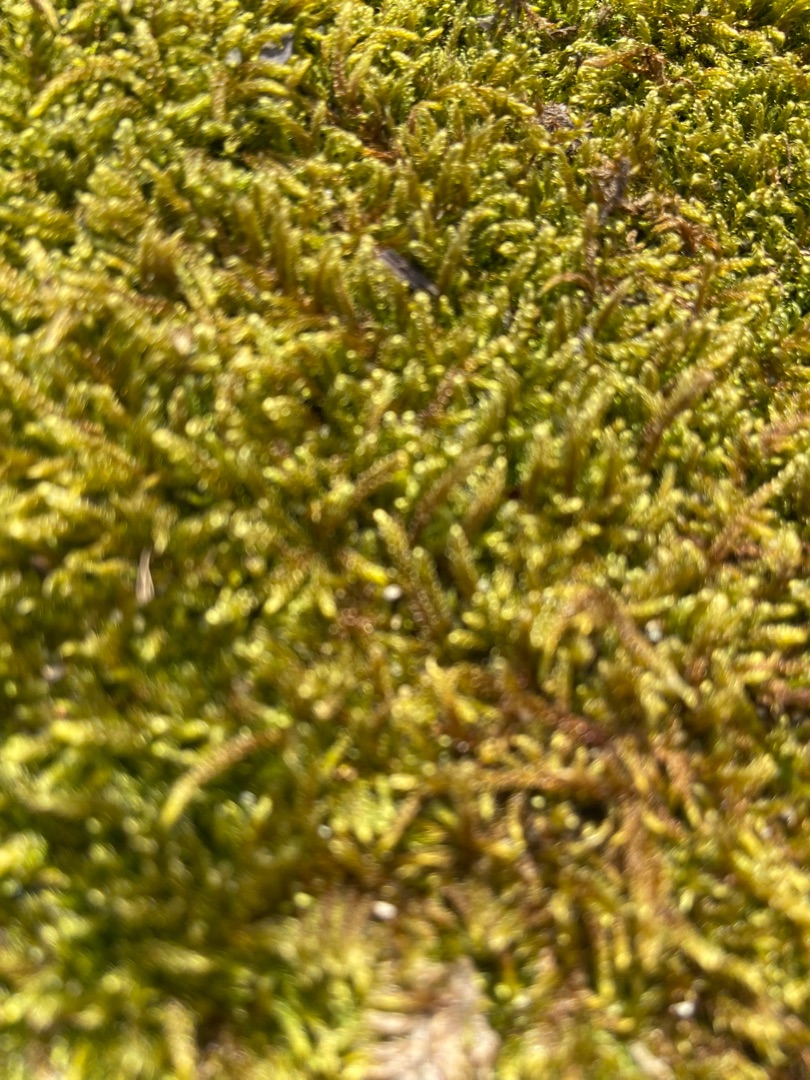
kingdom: Plantae
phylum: Bryophyta
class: Bryopsida
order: Hypnales
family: Hypnaceae
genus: Hypnum
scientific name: Hypnum cupressiforme
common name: Almindelig cypresmos
